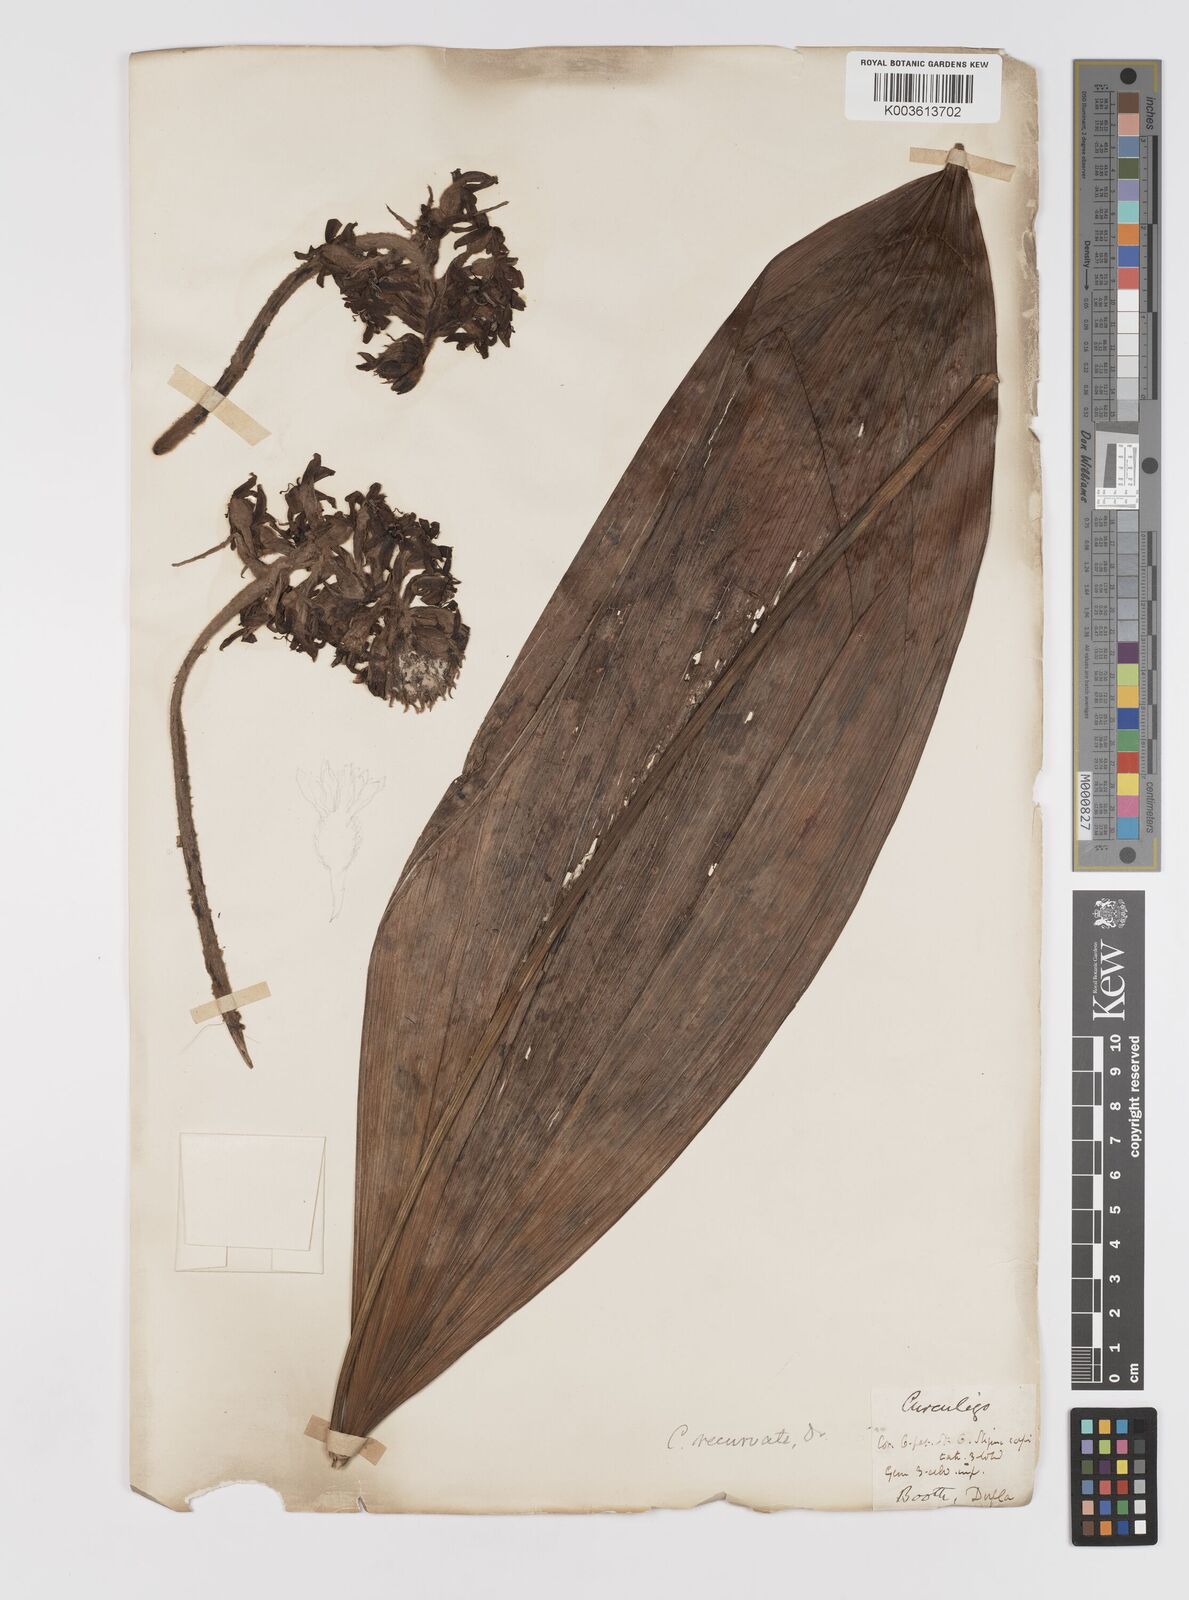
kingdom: Plantae
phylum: Tracheophyta
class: Liliopsida
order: Asparagales
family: Hypoxidaceae
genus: Curculigo
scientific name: Curculigo capitulata
